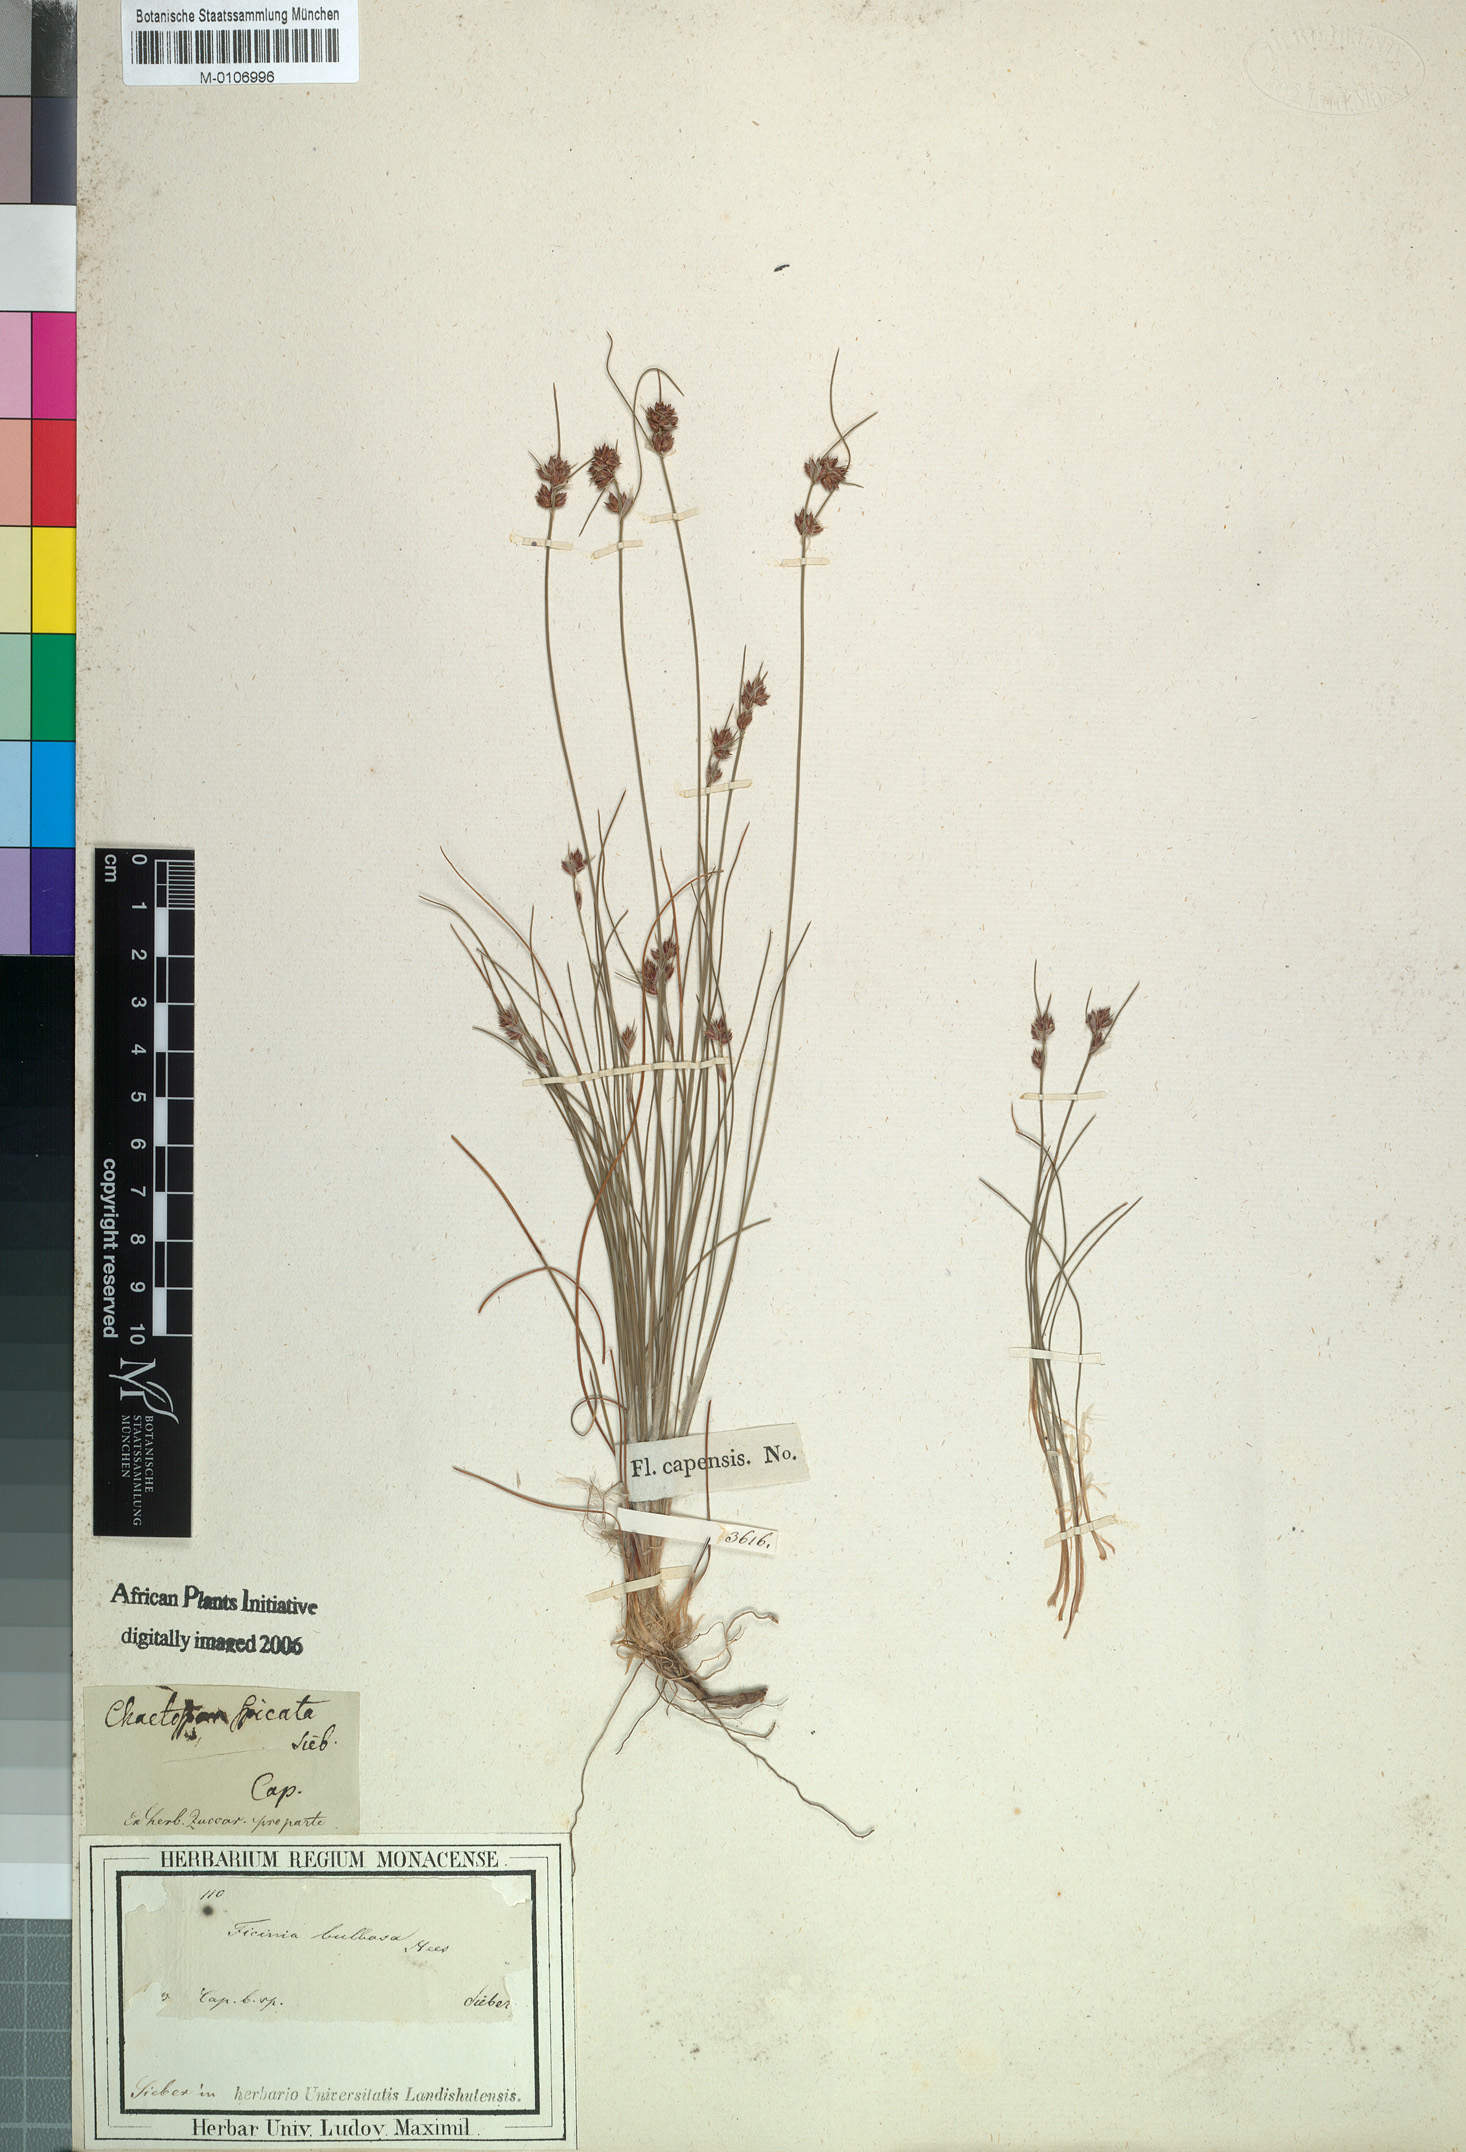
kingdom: Plantae
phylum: Tracheophyta
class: Liliopsida
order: Poales
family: Cyperaceae
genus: Ficinia
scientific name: Ficinia bulbosa
